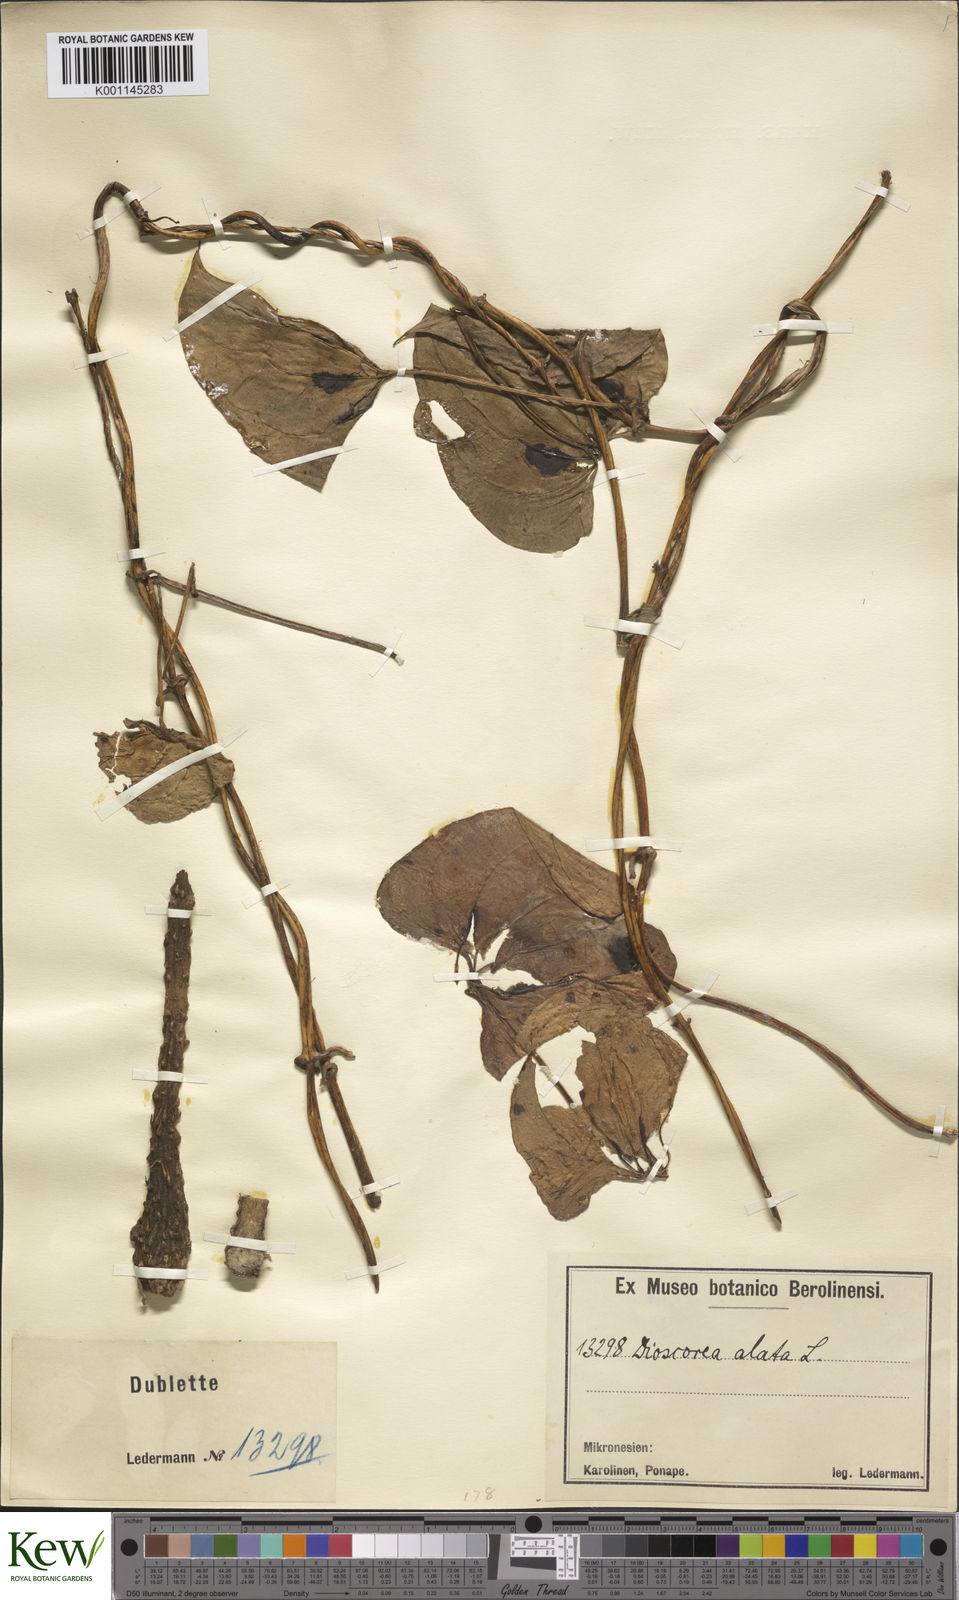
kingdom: Plantae
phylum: Tracheophyta
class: Liliopsida
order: Dioscoreales
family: Dioscoreaceae
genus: Dioscorea
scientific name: Dioscorea alata
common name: Water yam
